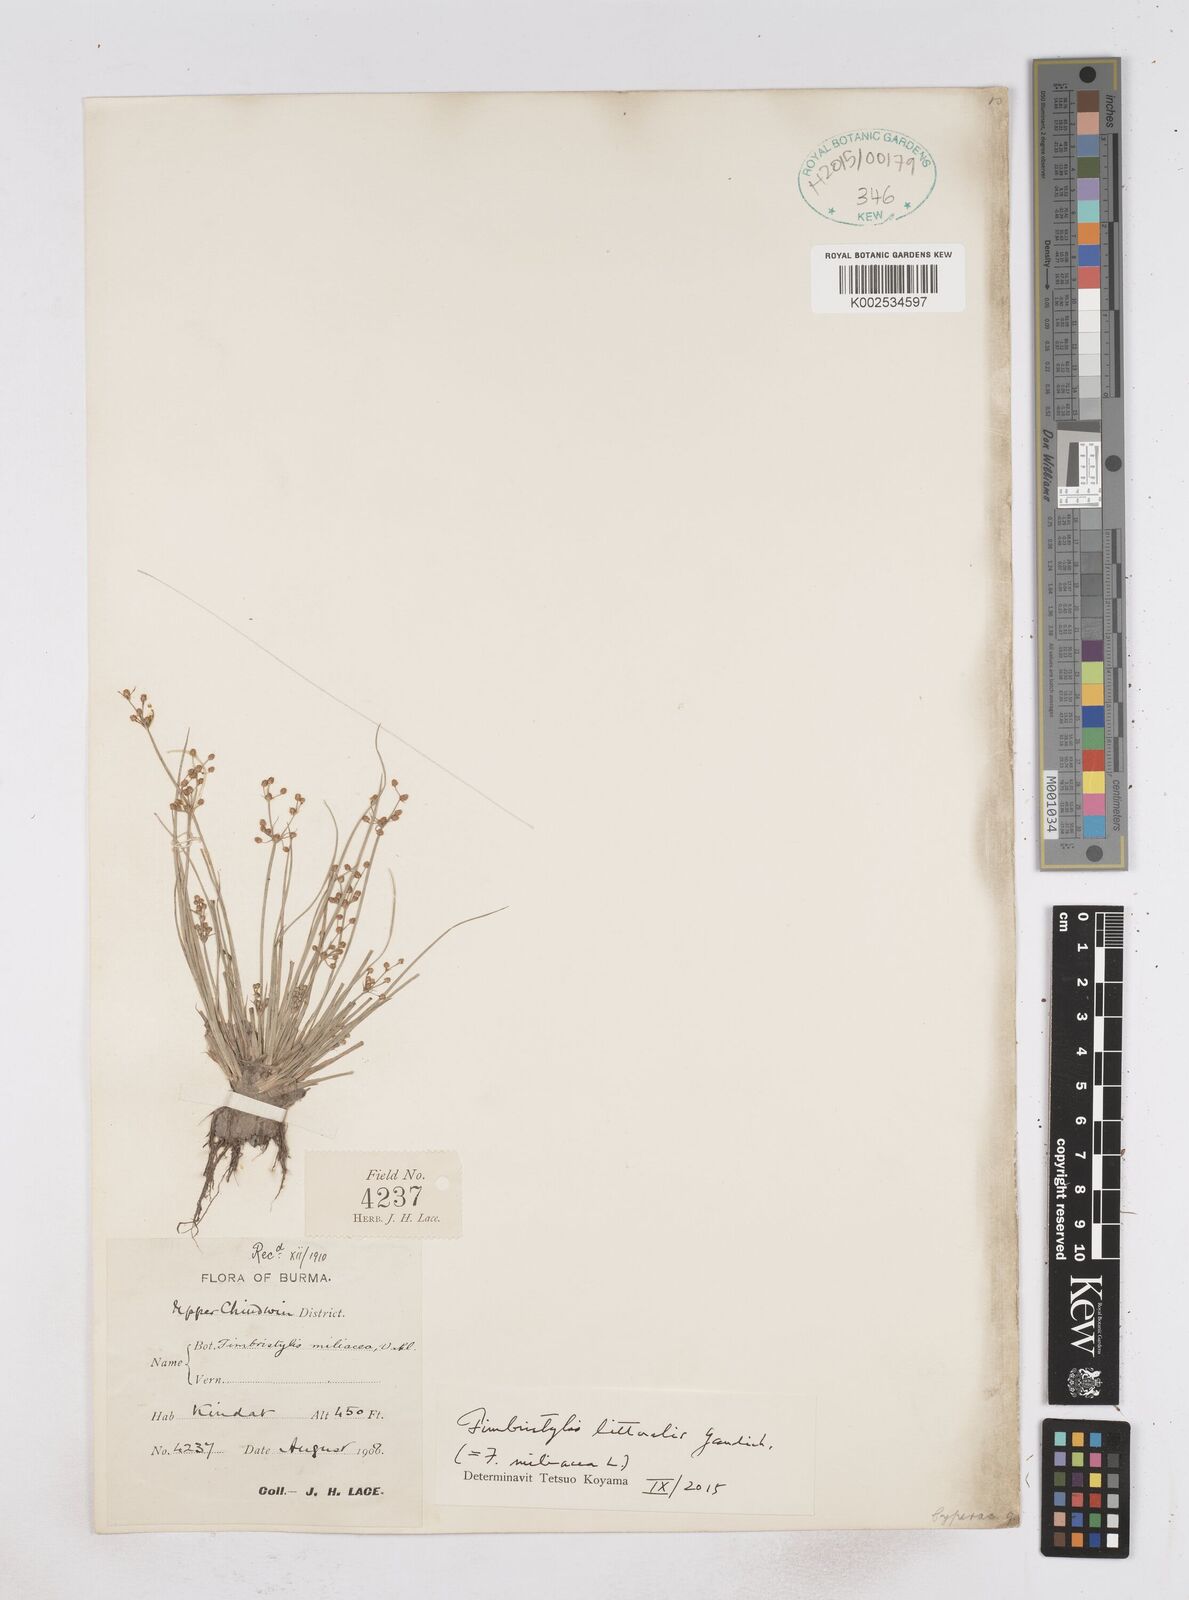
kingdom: Plantae
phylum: Tracheophyta
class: Liliopsida
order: Poales
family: Cyperaceae
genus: Fimbristylis
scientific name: Fimbristylis littoralis
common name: Fimbry
